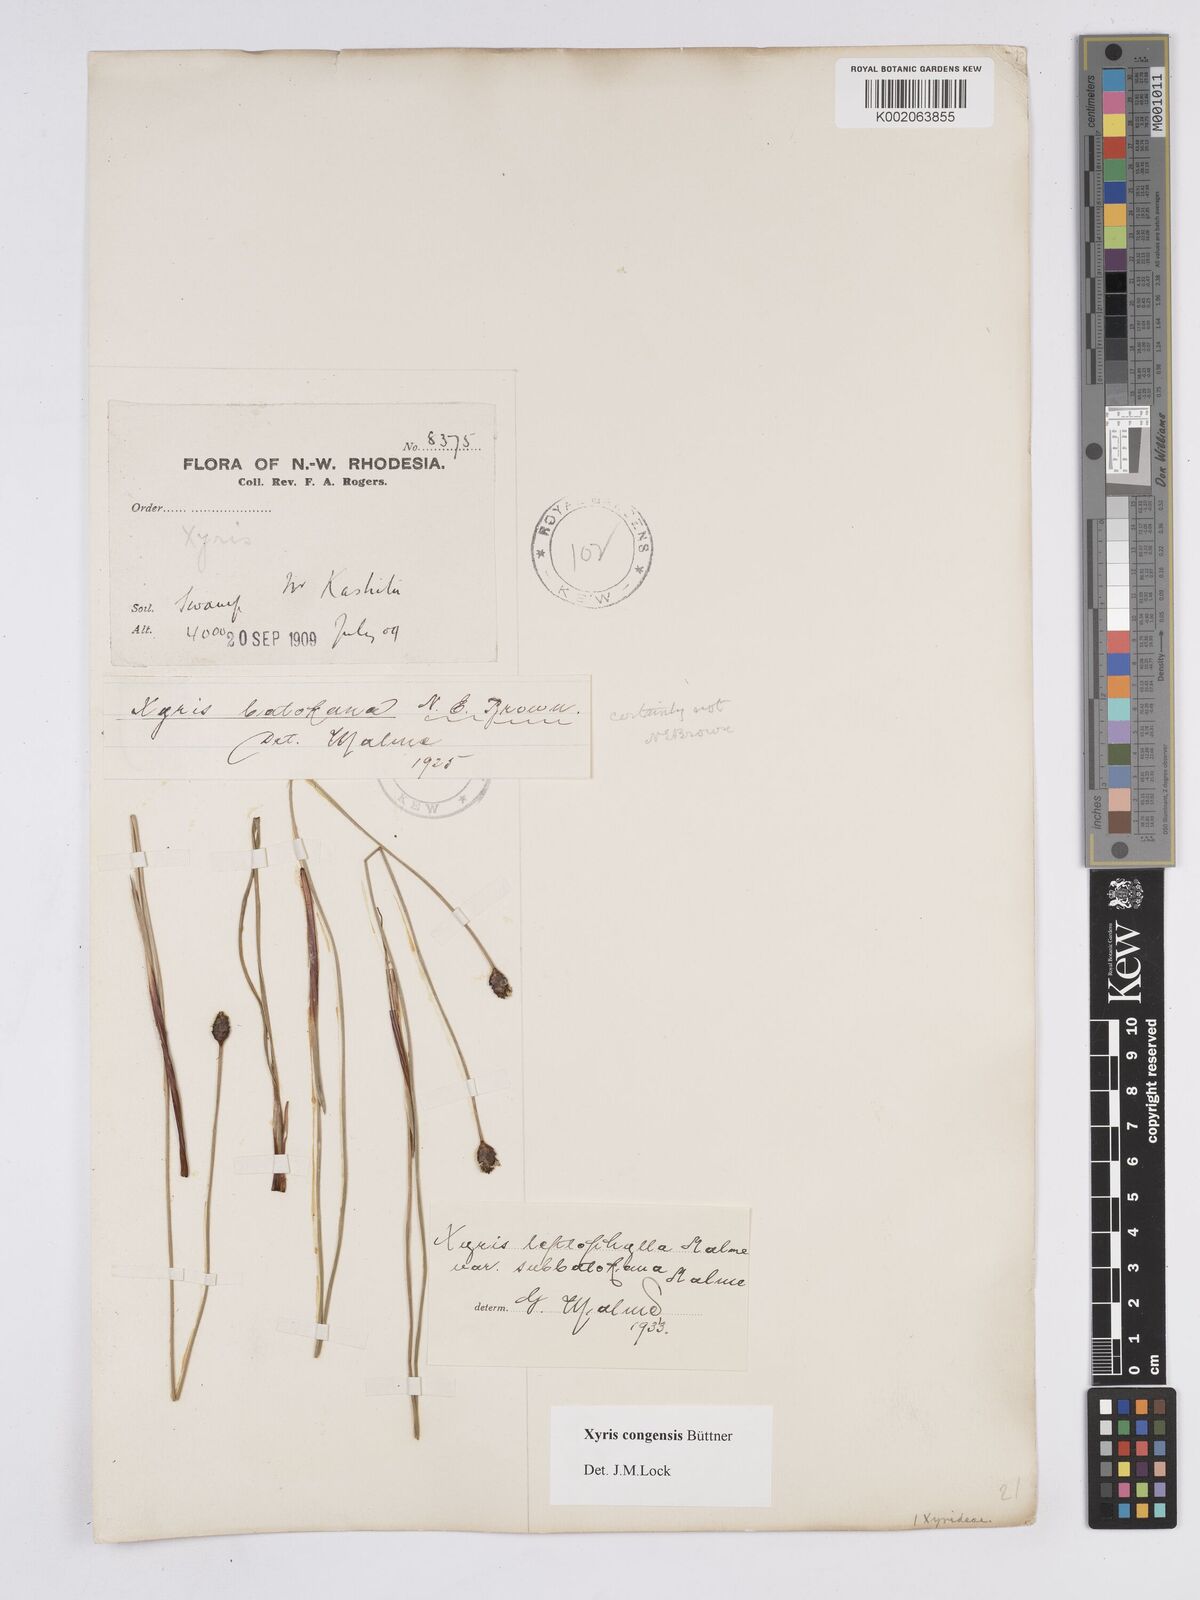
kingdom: Plantae
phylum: Tracheophyta
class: Liliopsida
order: Poales
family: Xyridaceae
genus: Xyris
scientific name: Xyris congensis
